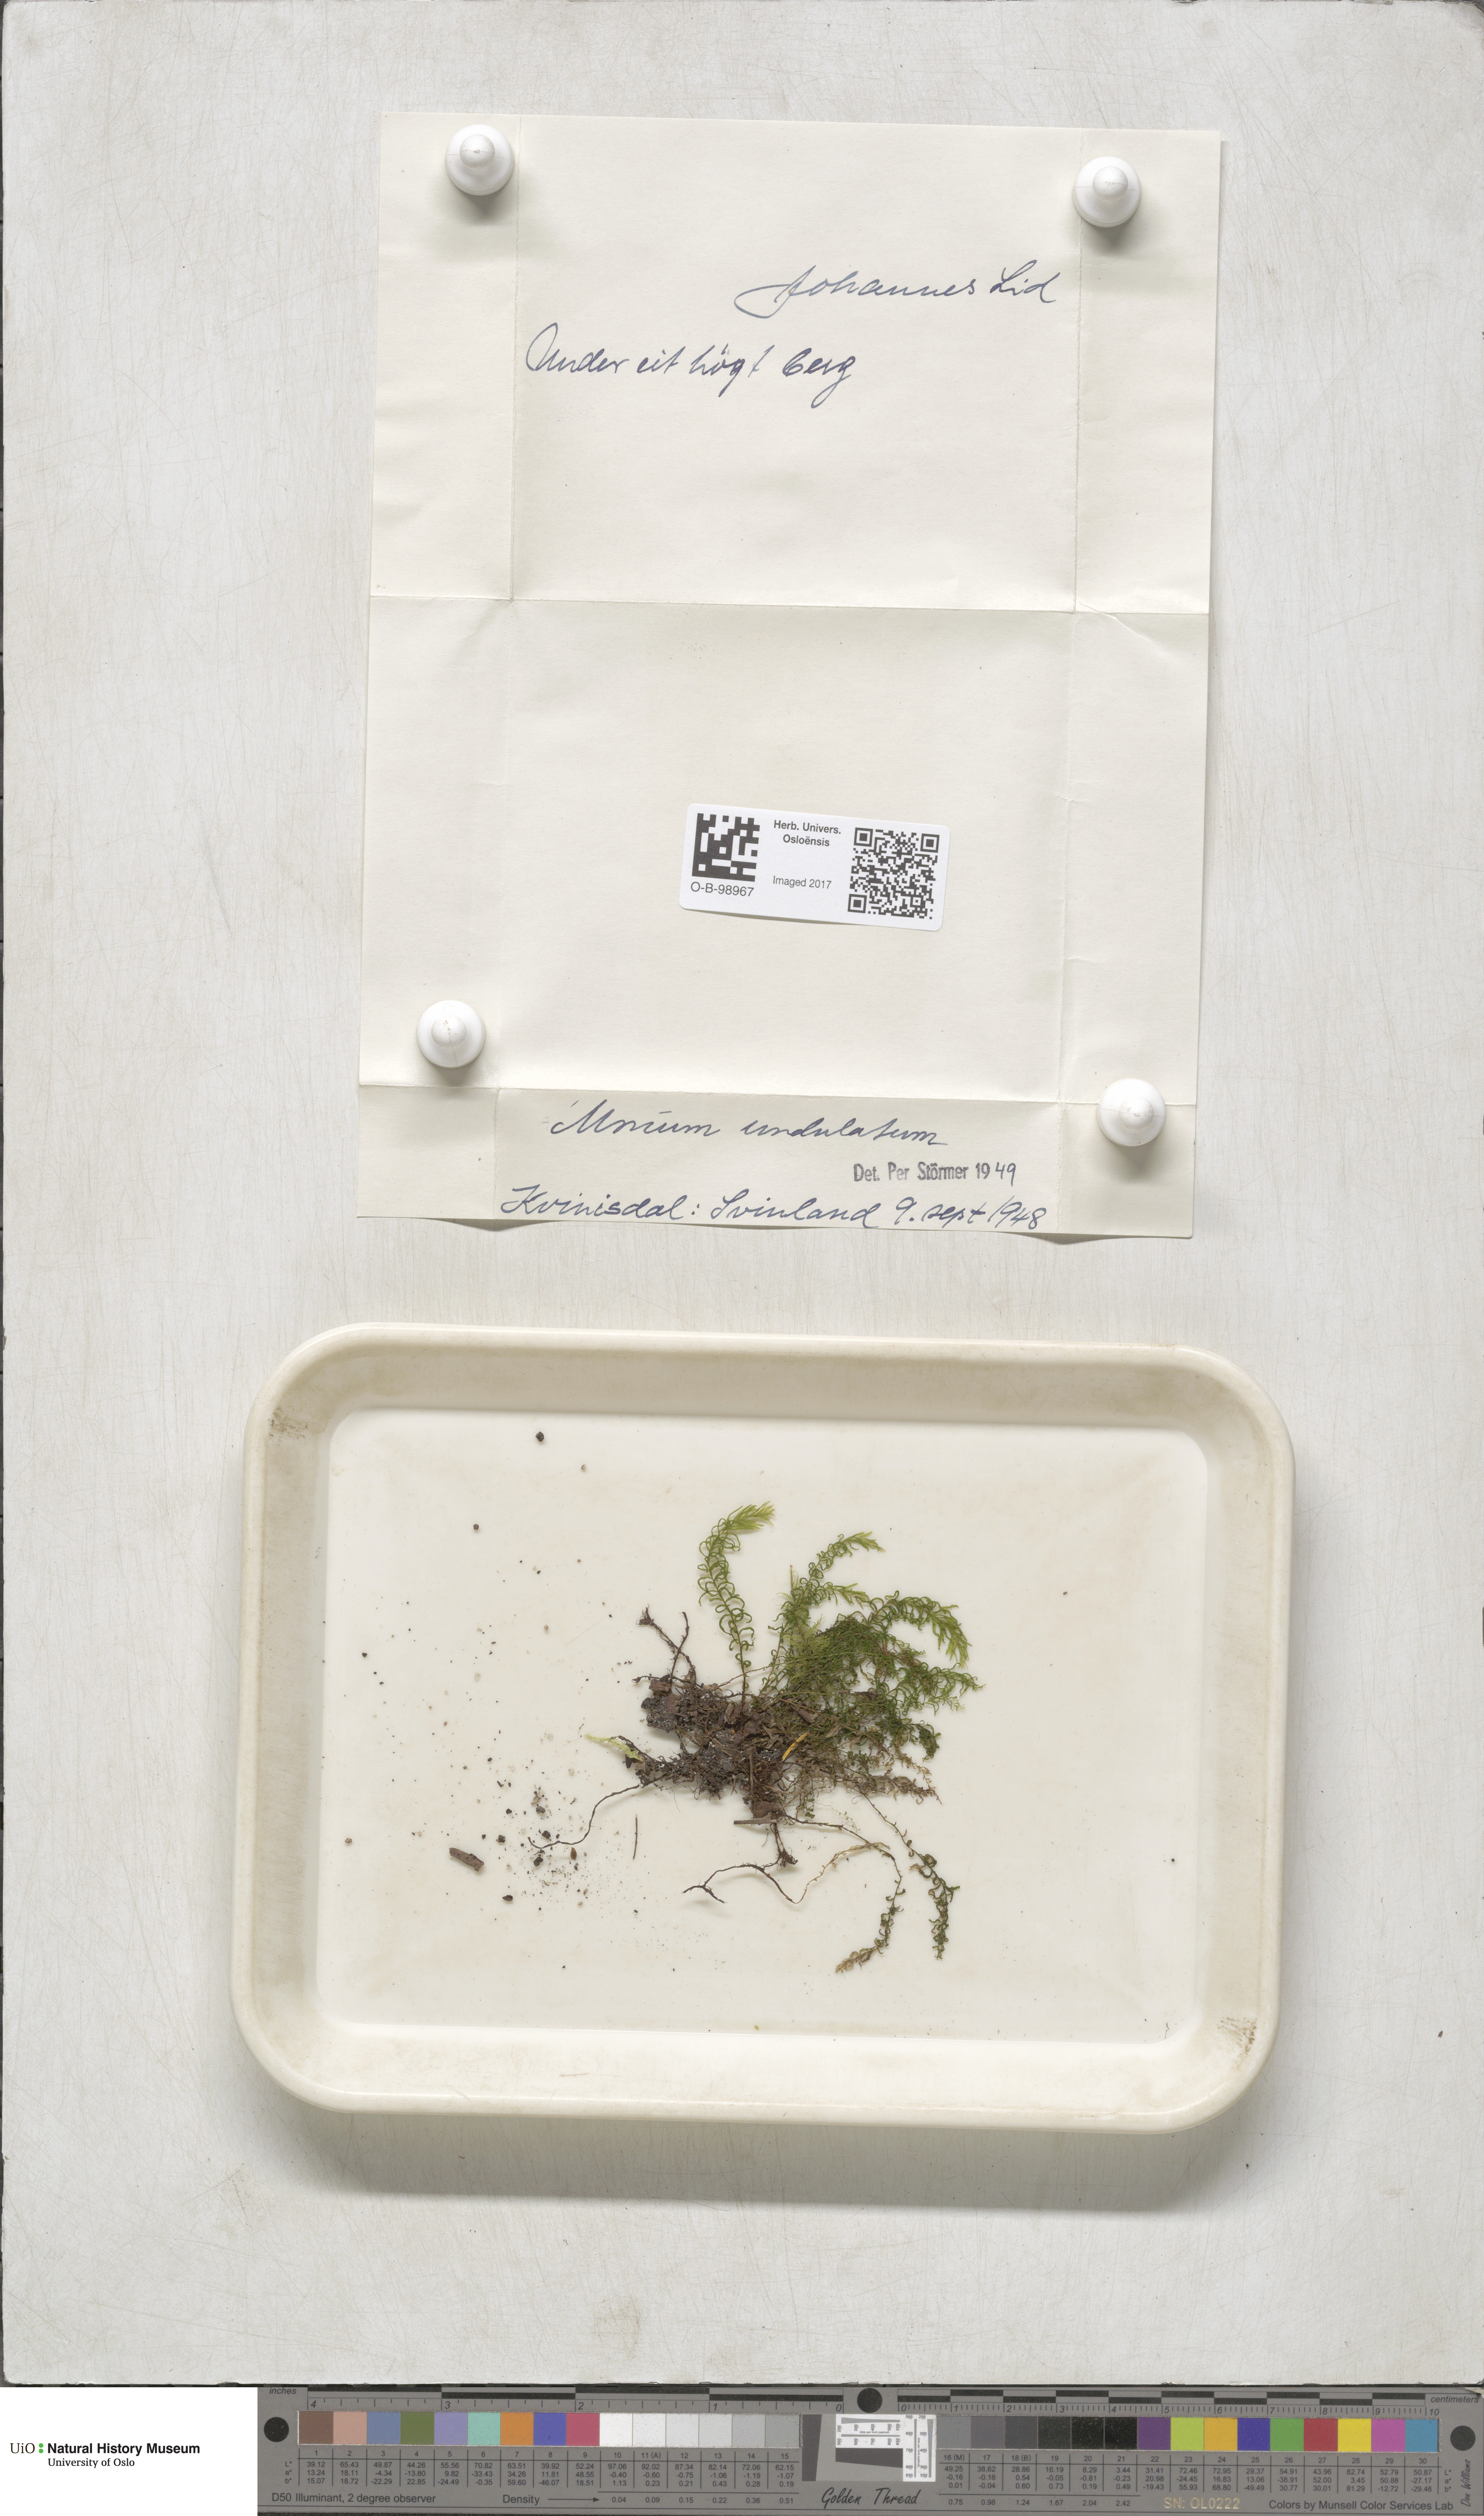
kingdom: Plantae
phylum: Bryophyta
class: Bryopsida
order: Bryales
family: Mniaceae
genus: Plagiomnium
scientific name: Plagiomnium undulatum
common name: Hart's-tongue thyme-moss
